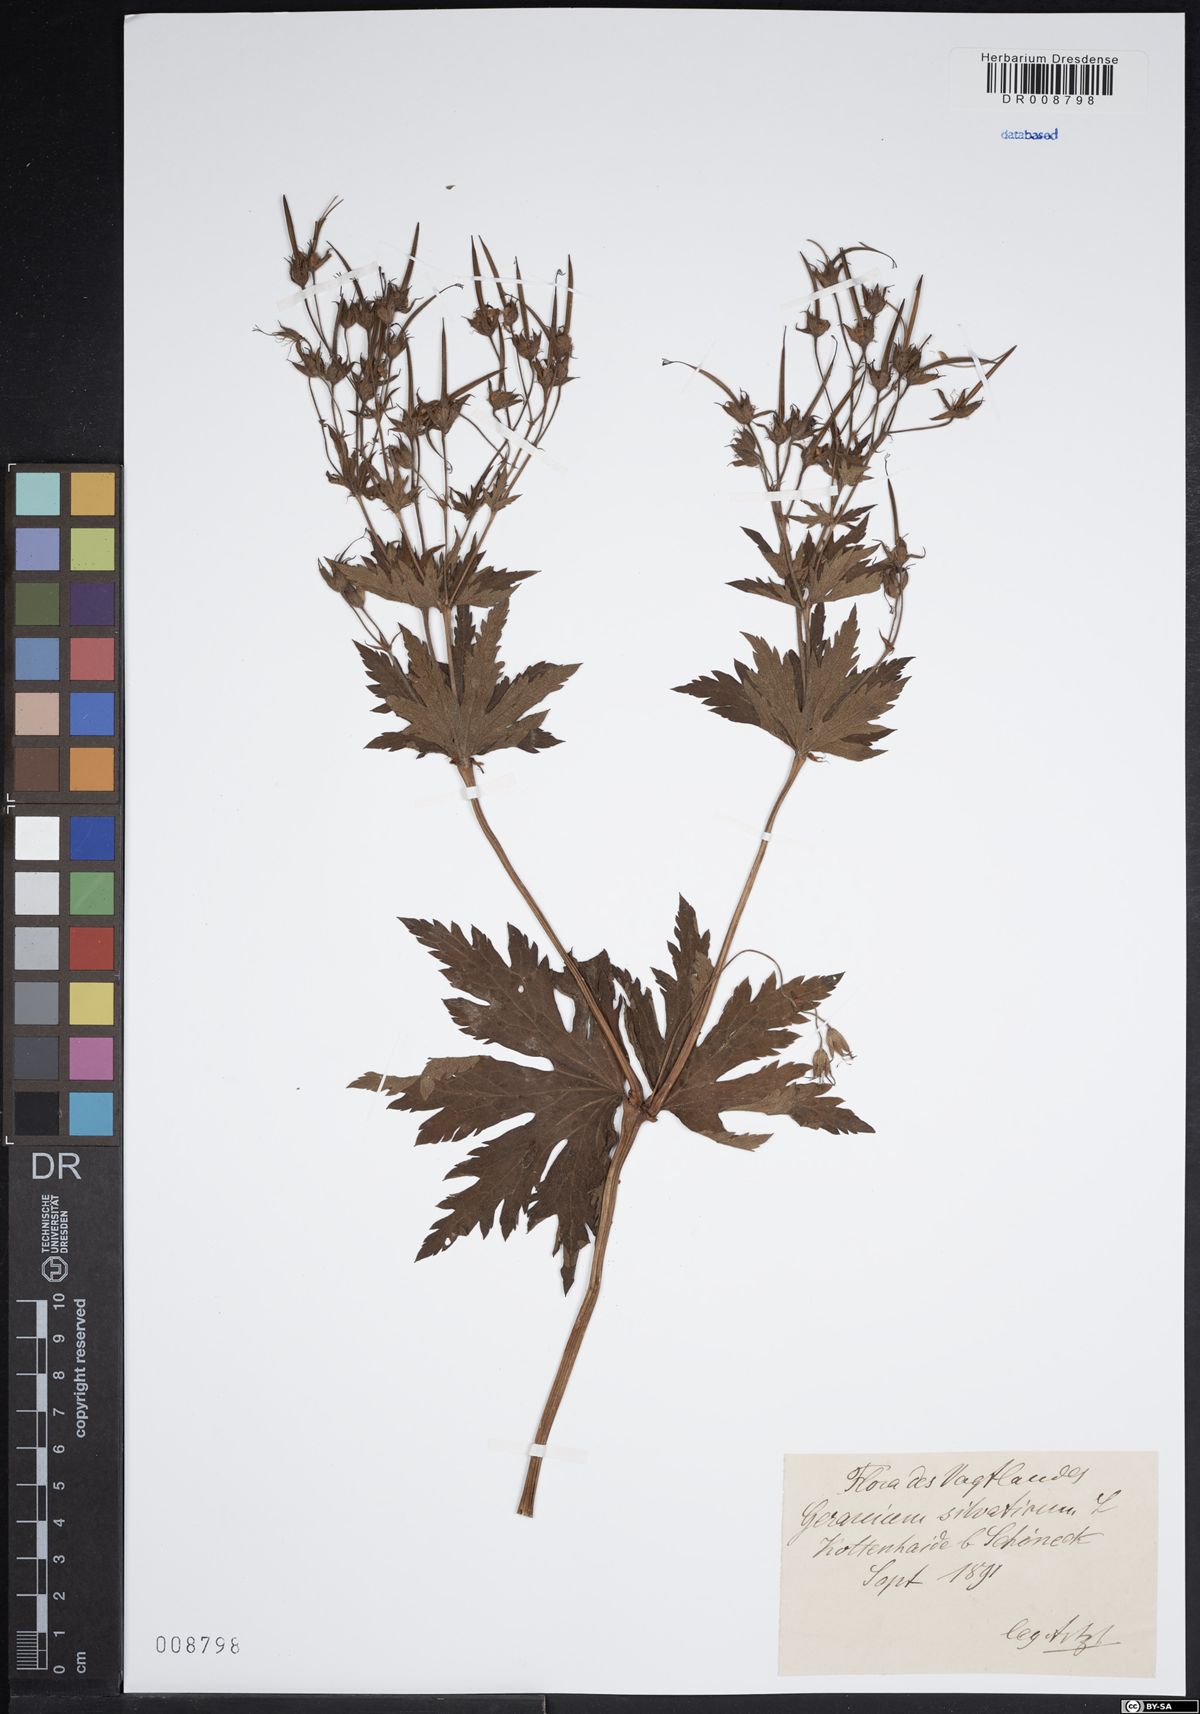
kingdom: Plantae
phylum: Tracheophyta
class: Magnoliopsida
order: Geraniales
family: Geraniaceae
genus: Geranium
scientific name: Geranium sylvaticum
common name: Wood crane's-bill
